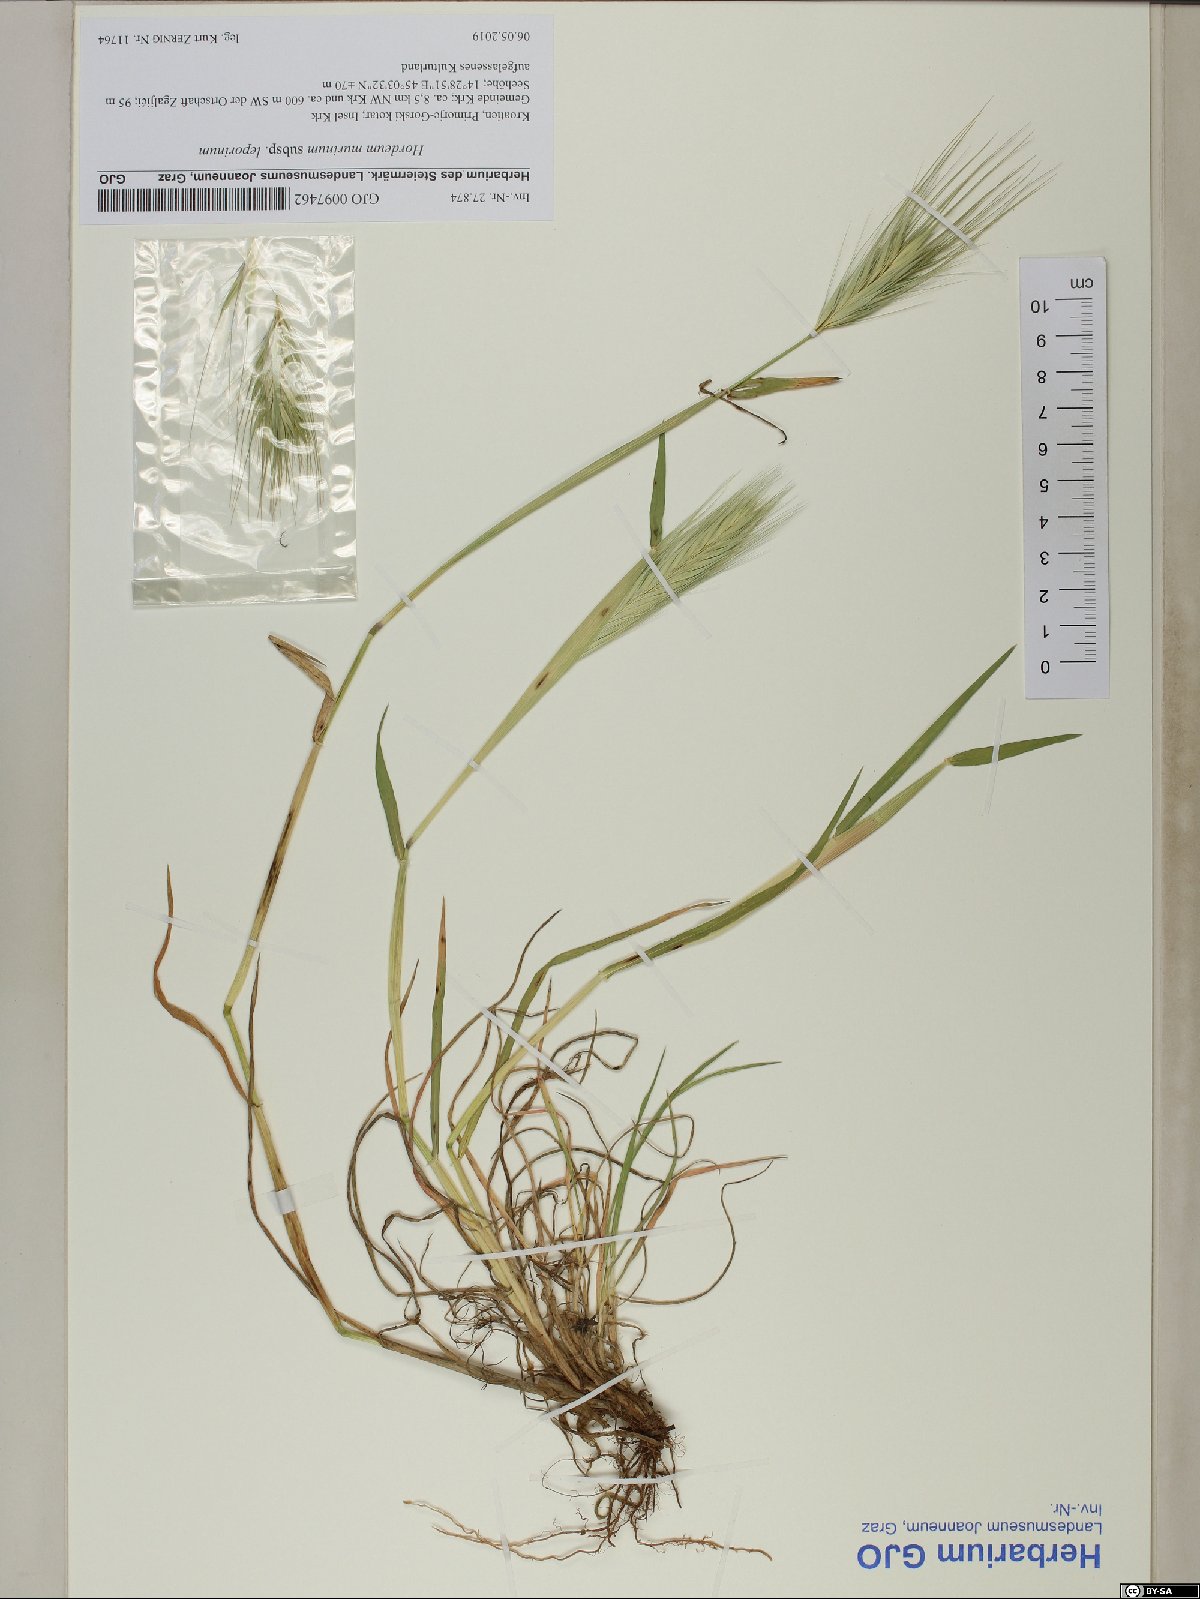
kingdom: Plantae
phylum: Tracheophyta
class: Liliopsida
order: Poales
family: Poaceae
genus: Hordeum
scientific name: Hordeum murinum
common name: Wall barley
